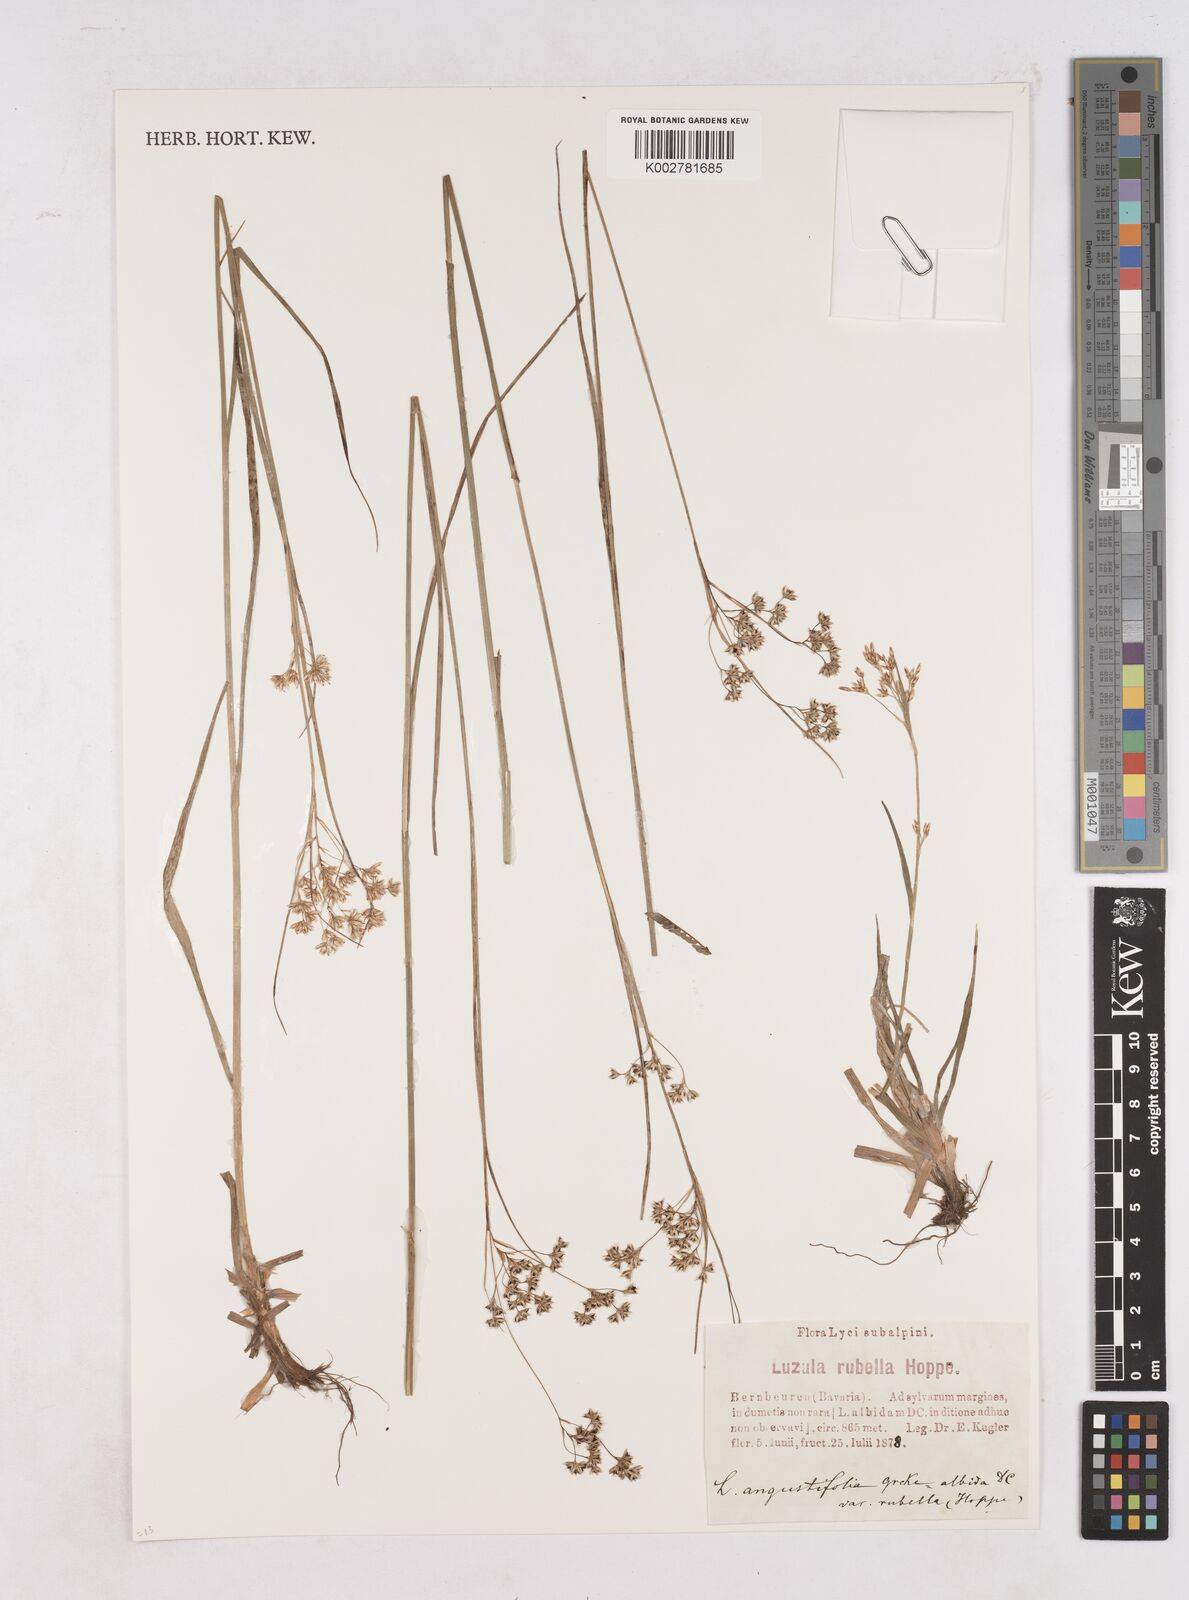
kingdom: Plantae
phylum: Tracheophyta
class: Liliopsida
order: Poales
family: Juncaceae
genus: Luzula
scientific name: Luzula luzuloides
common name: White wood-rush
